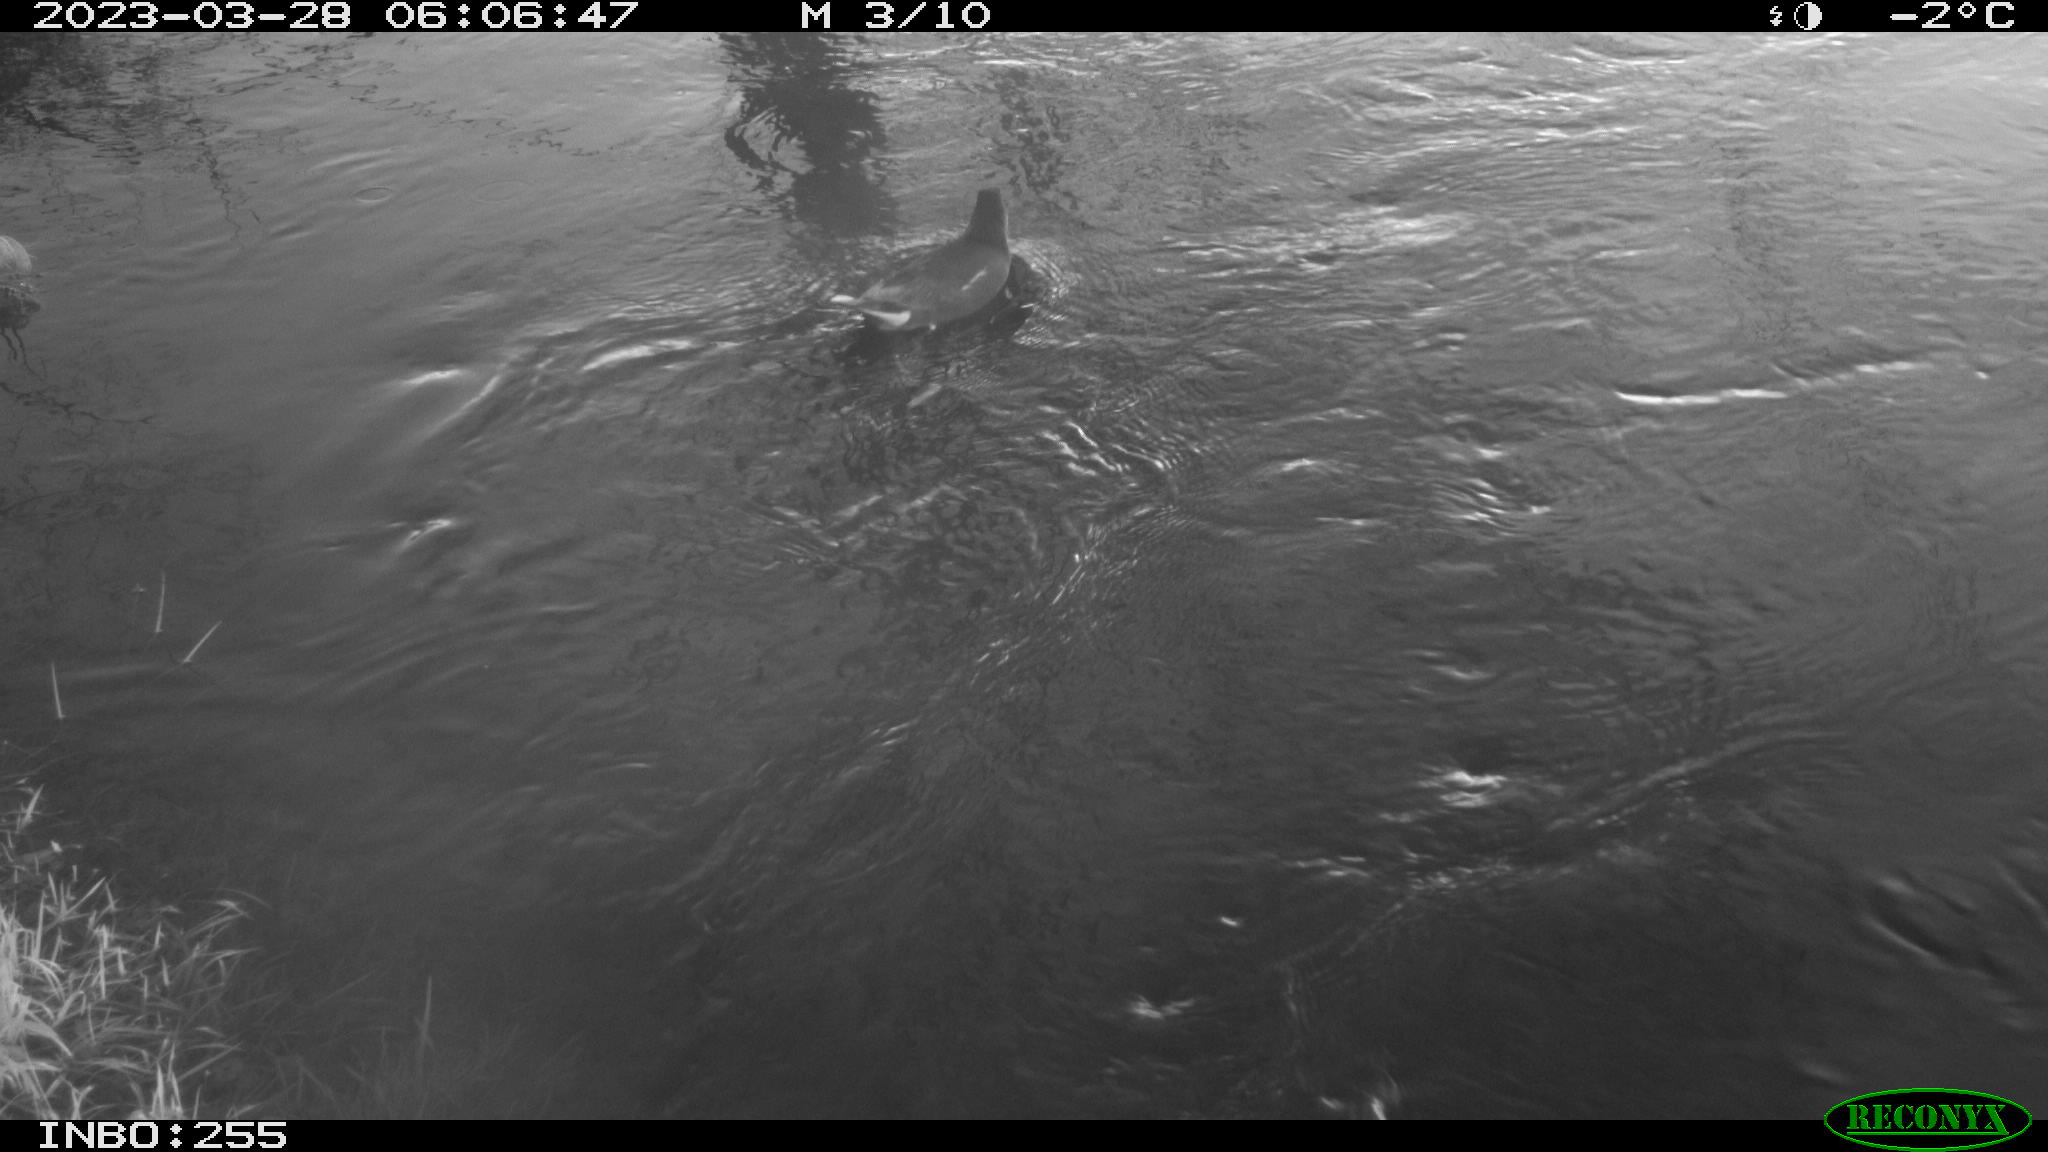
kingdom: Animalia
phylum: Chordata
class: Aves
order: Gruiformes
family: Rallidae
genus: Gallinula
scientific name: Gallinula chloropus
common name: Common moorhen
